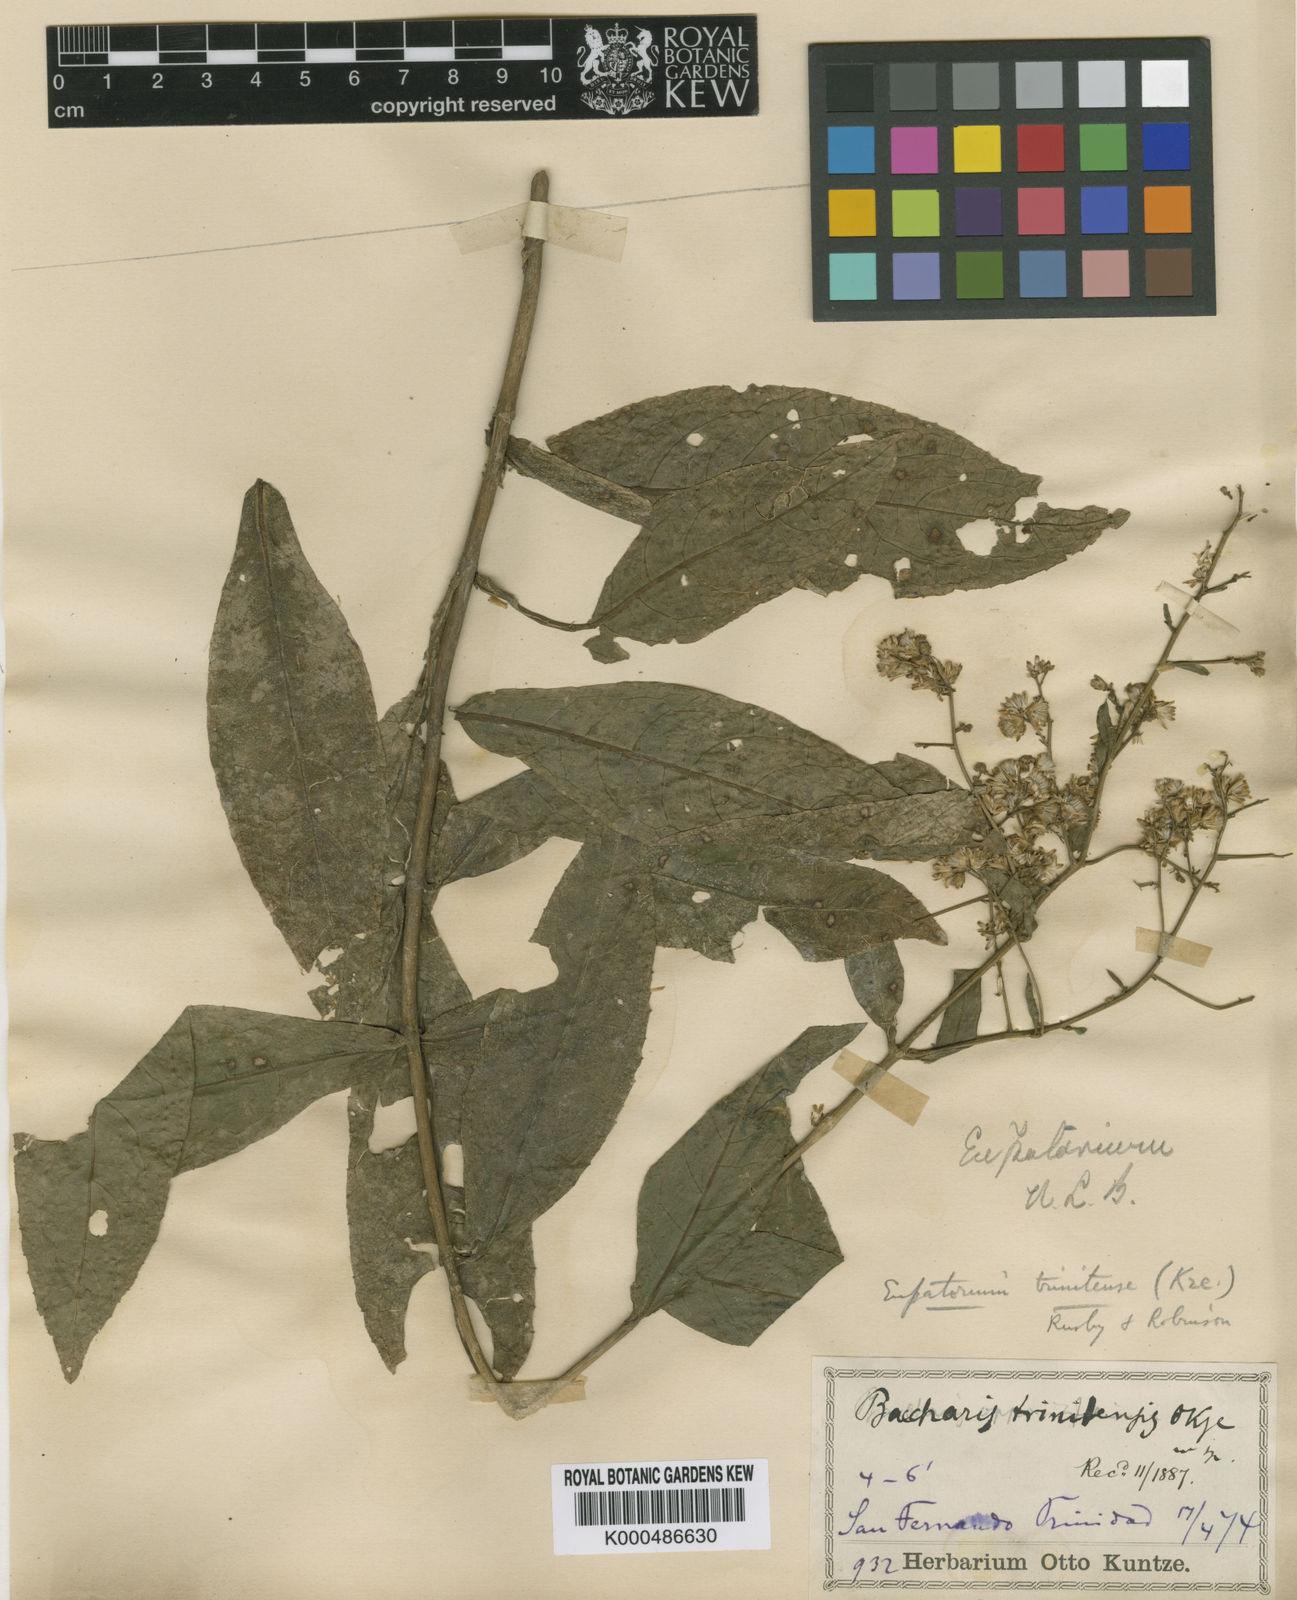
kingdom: Plantae
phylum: Tracheophyta
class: Magnoliopsida
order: Asterales
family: Asteraceae
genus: Ayapana
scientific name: Ayapana trinitensis
